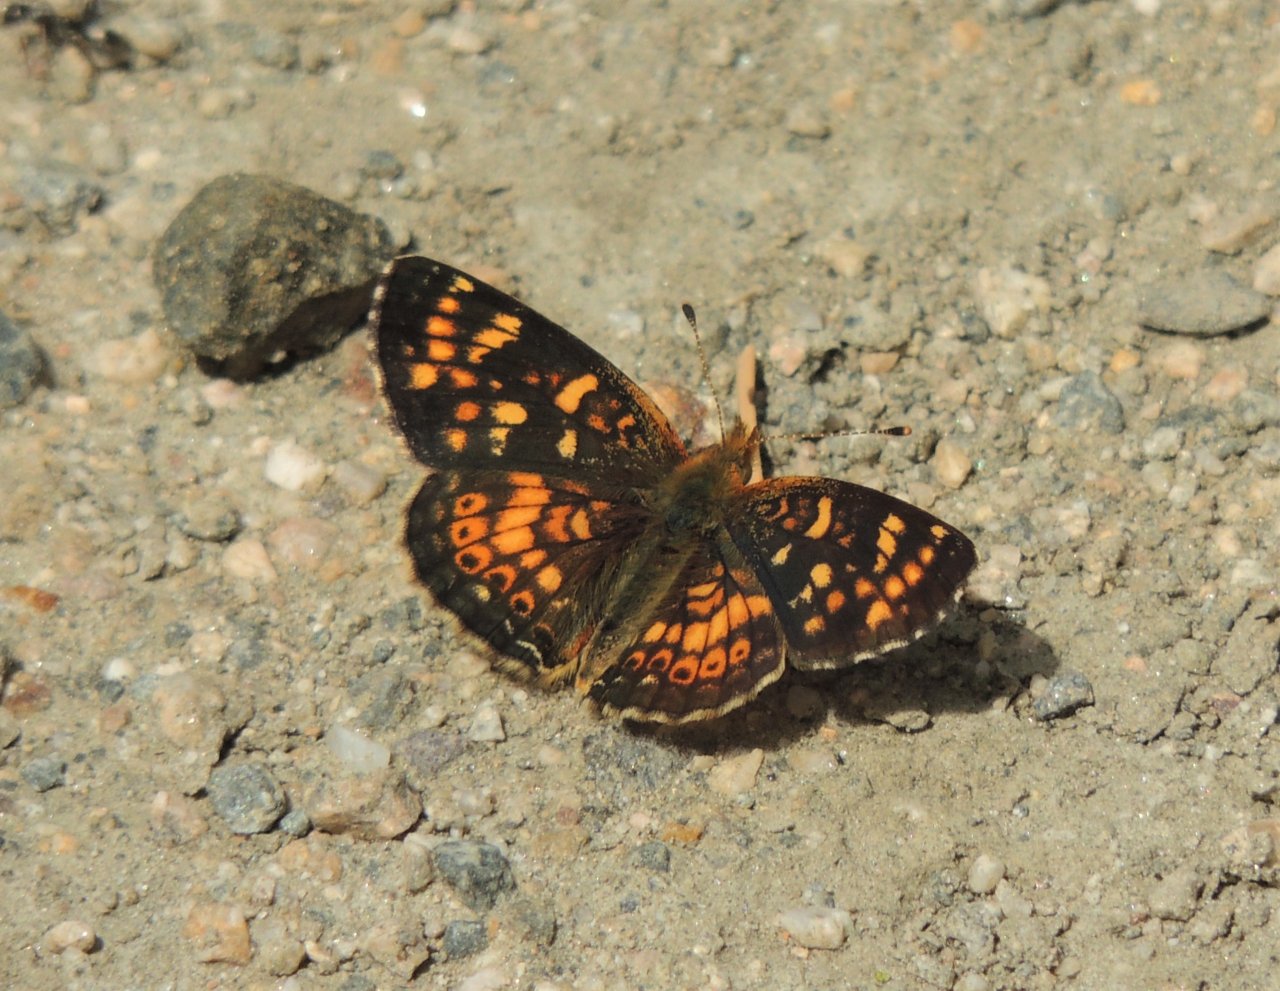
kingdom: Animalia
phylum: Arthropoda
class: Insecta
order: Lepidoptera
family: Nymphalidae
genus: Phyciodes
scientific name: Phyciodes tharos
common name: Field Crescent
